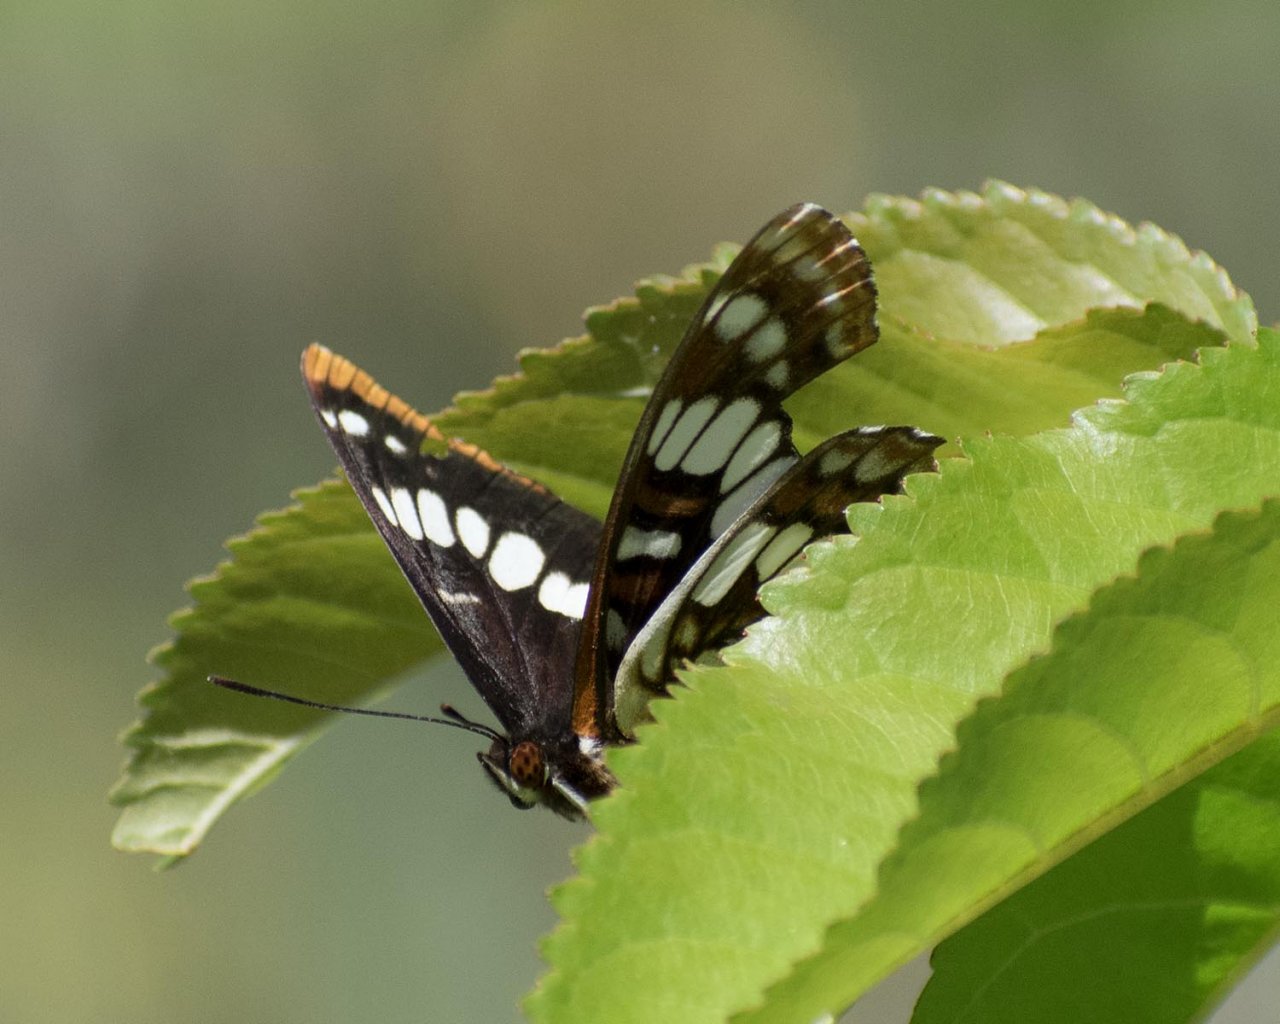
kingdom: Animalia
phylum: Arthropoda
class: Insecta
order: Lepidoptera
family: Nymphalidae
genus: Limenitis
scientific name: Limenitis lorquini
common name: Lorquin's Admiral
